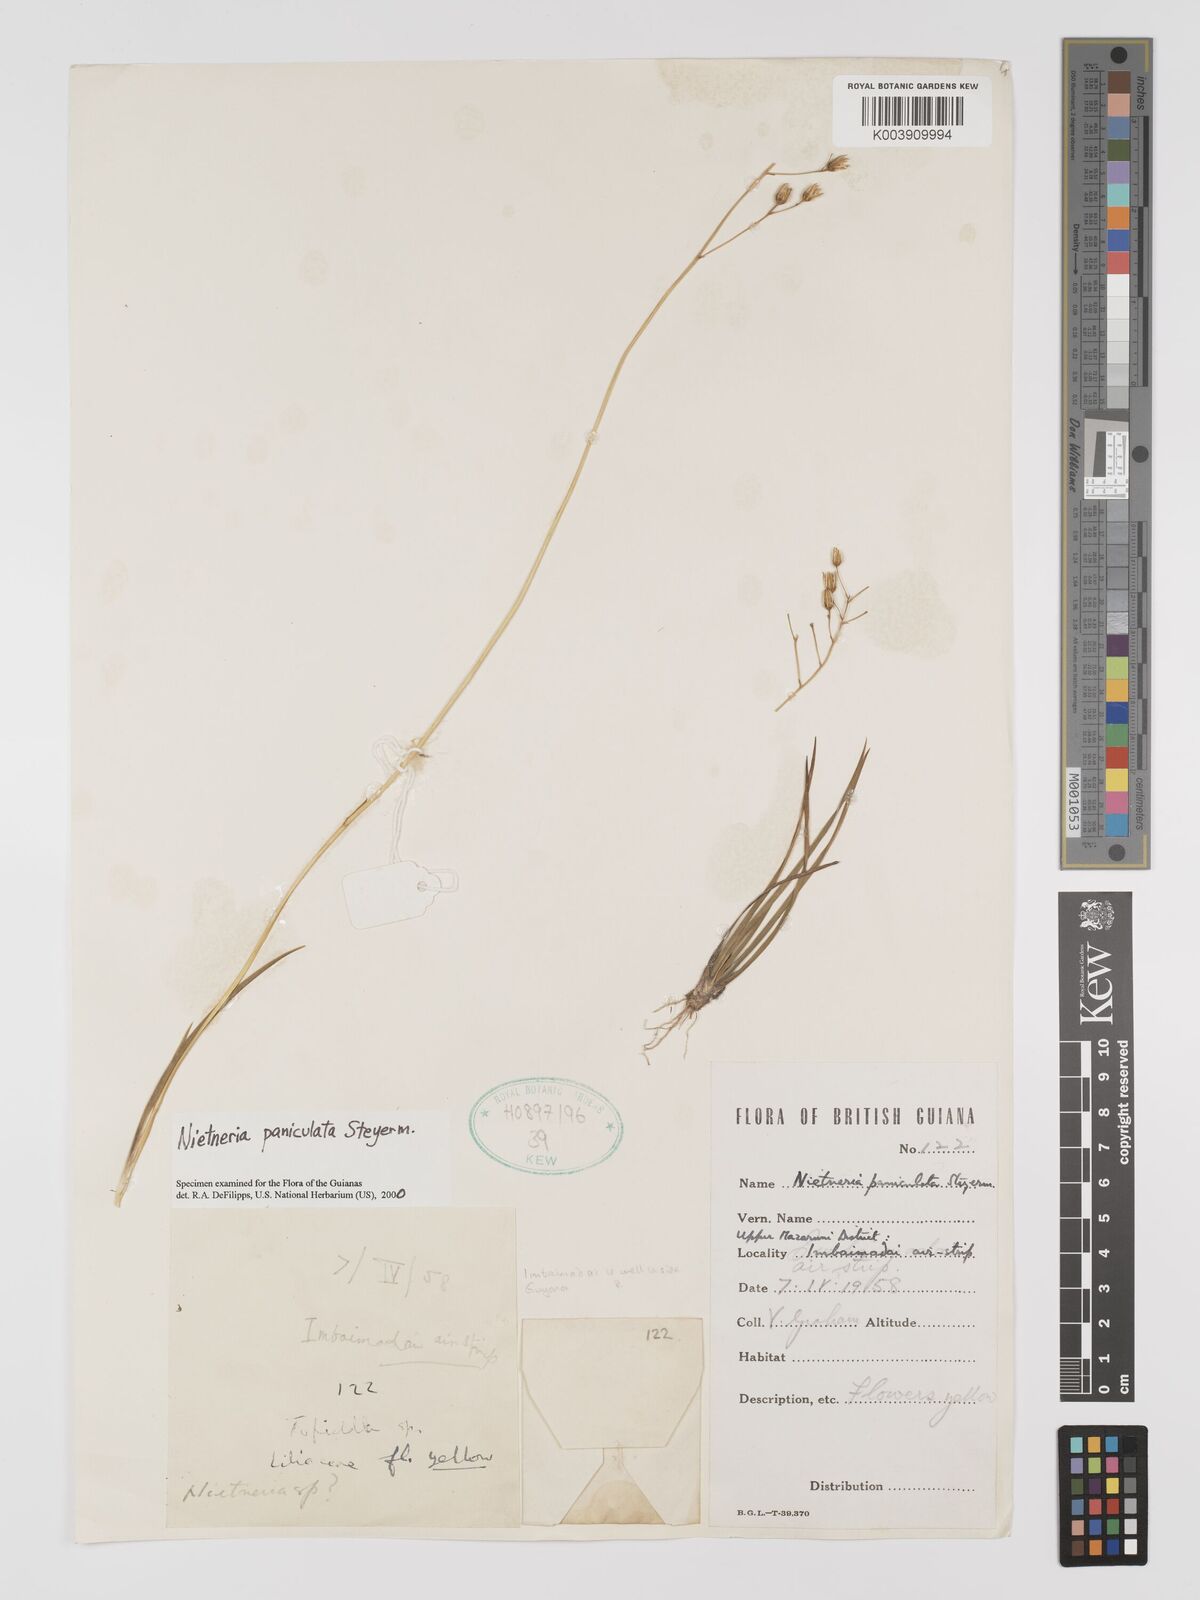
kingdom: Plantae
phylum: Tracheophyta
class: Liliopsida
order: Dioscoreales
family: Nartheciaceae
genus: Nietneria
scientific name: Nietneria paniculata
